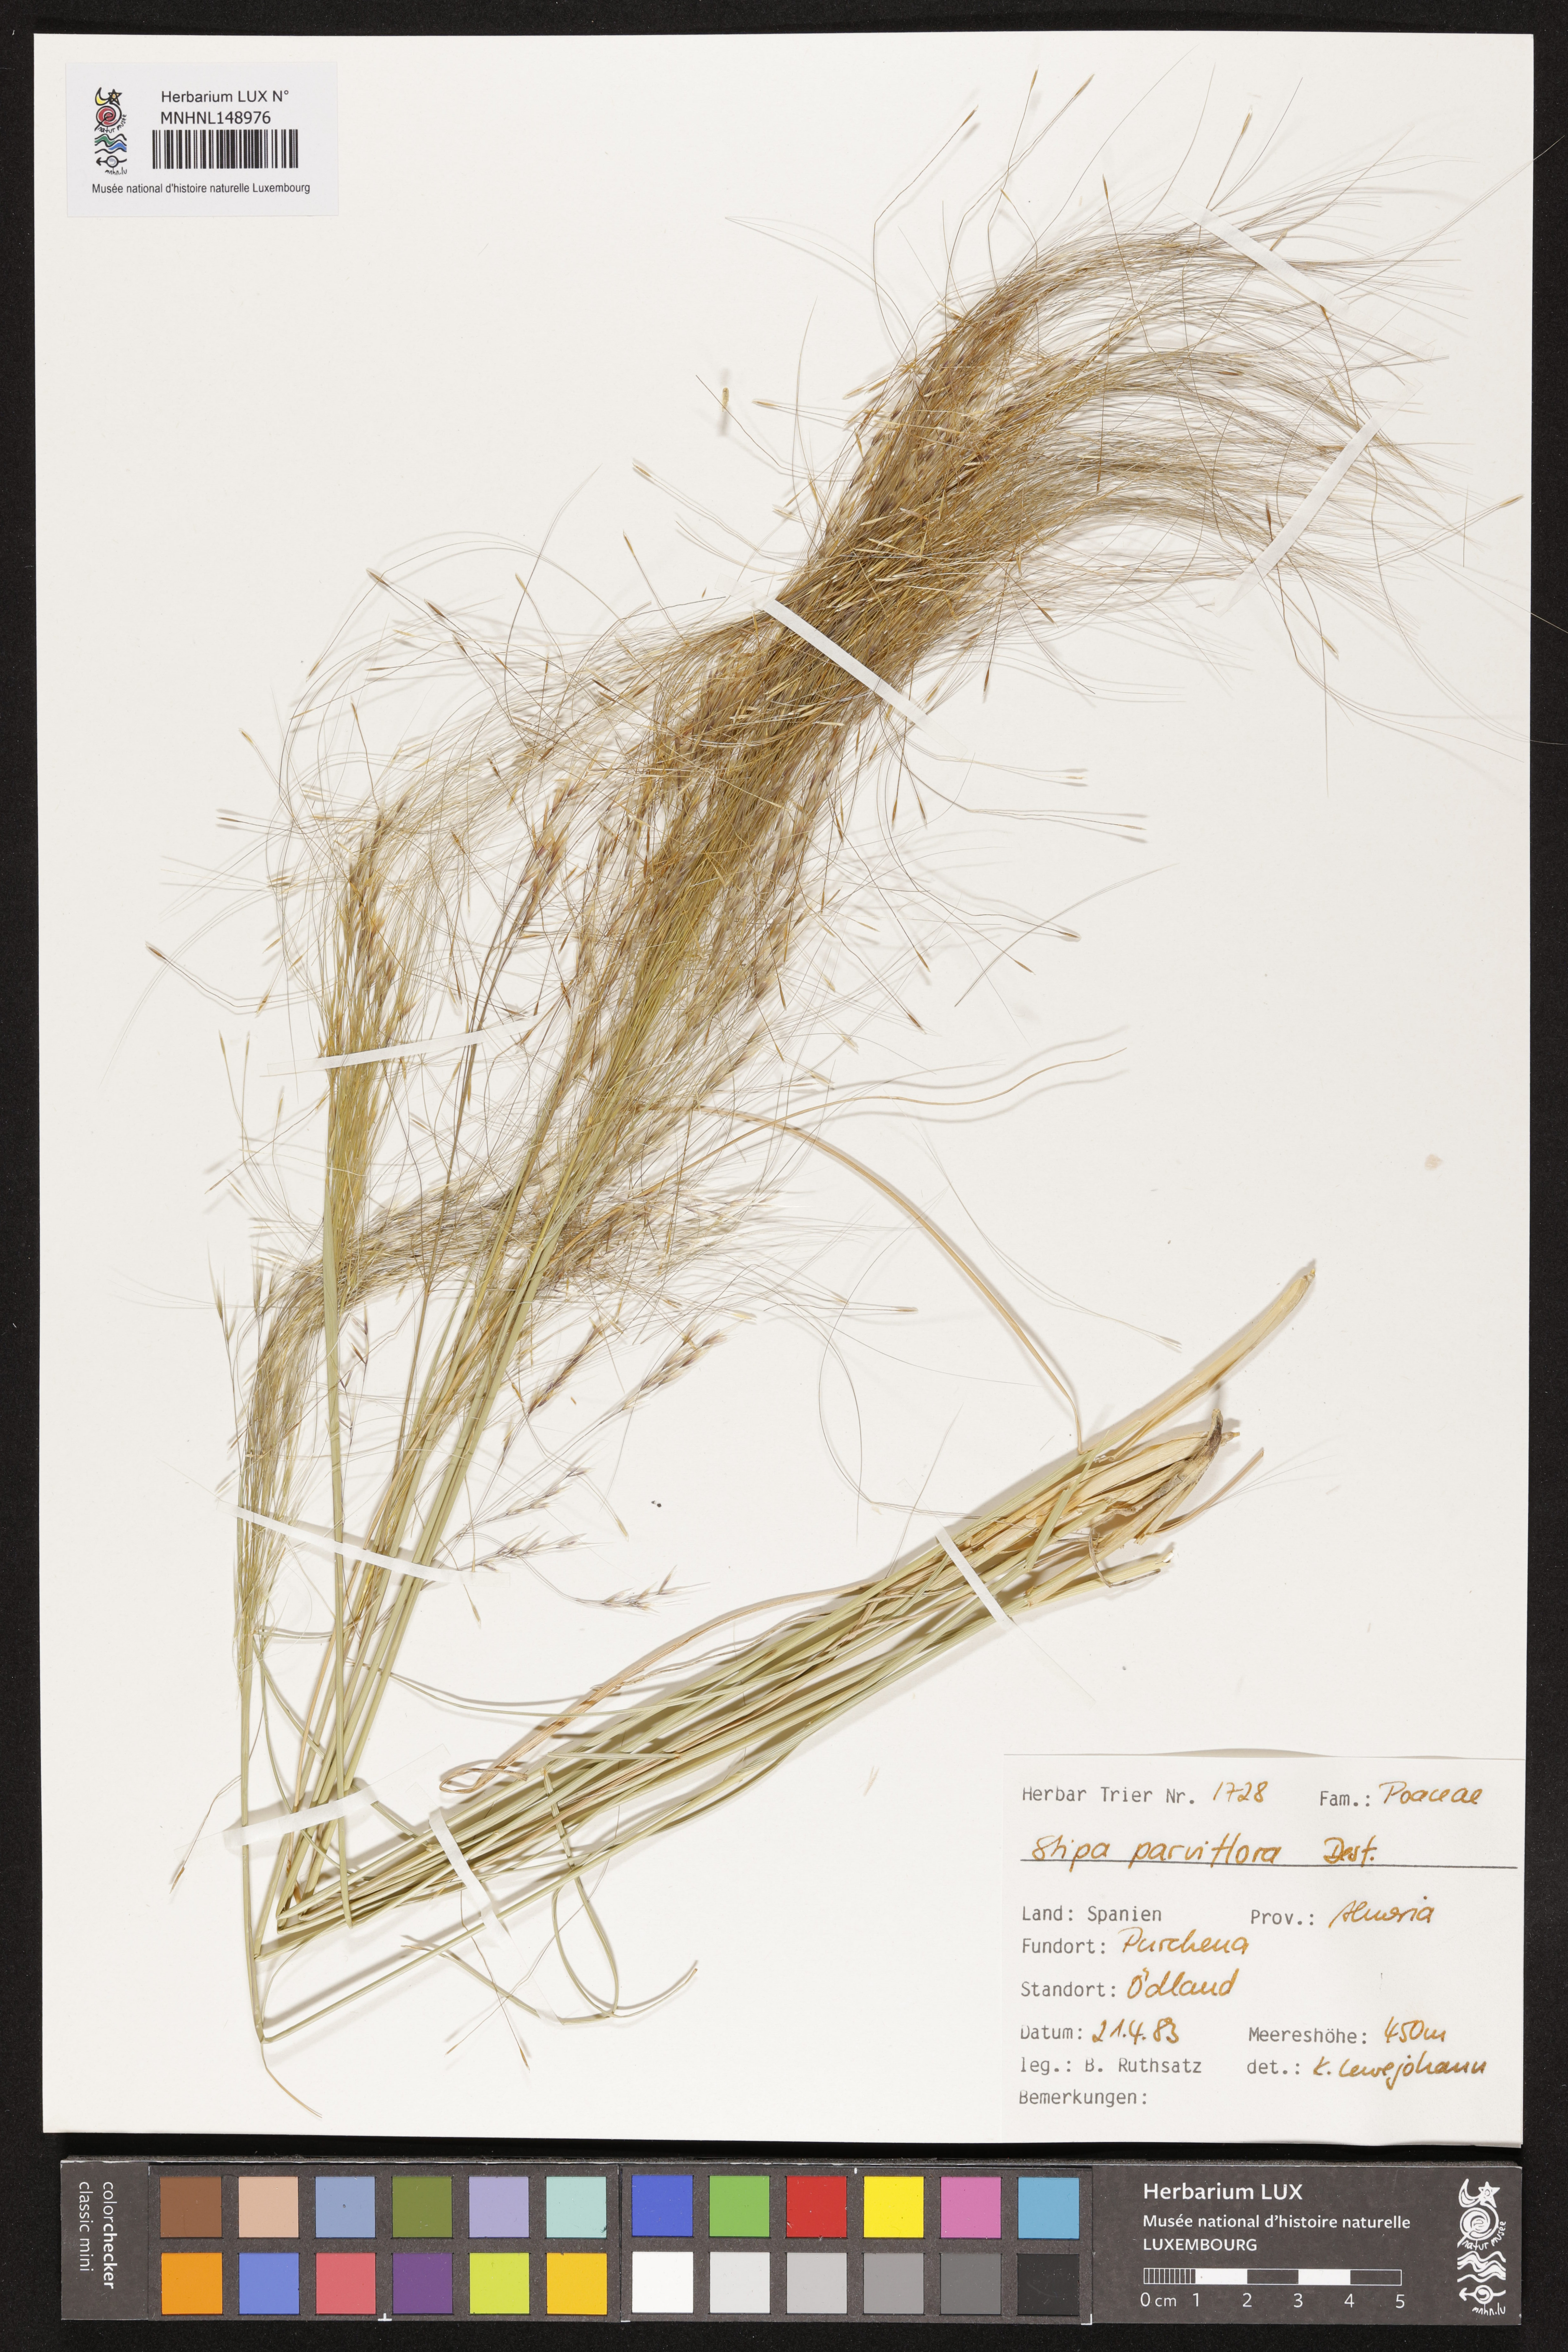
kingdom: Plantae
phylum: Tracheophyta
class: Liliopsida
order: Poales
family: Poaceae
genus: Achnatherum
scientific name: Achnatherum parviflorum
